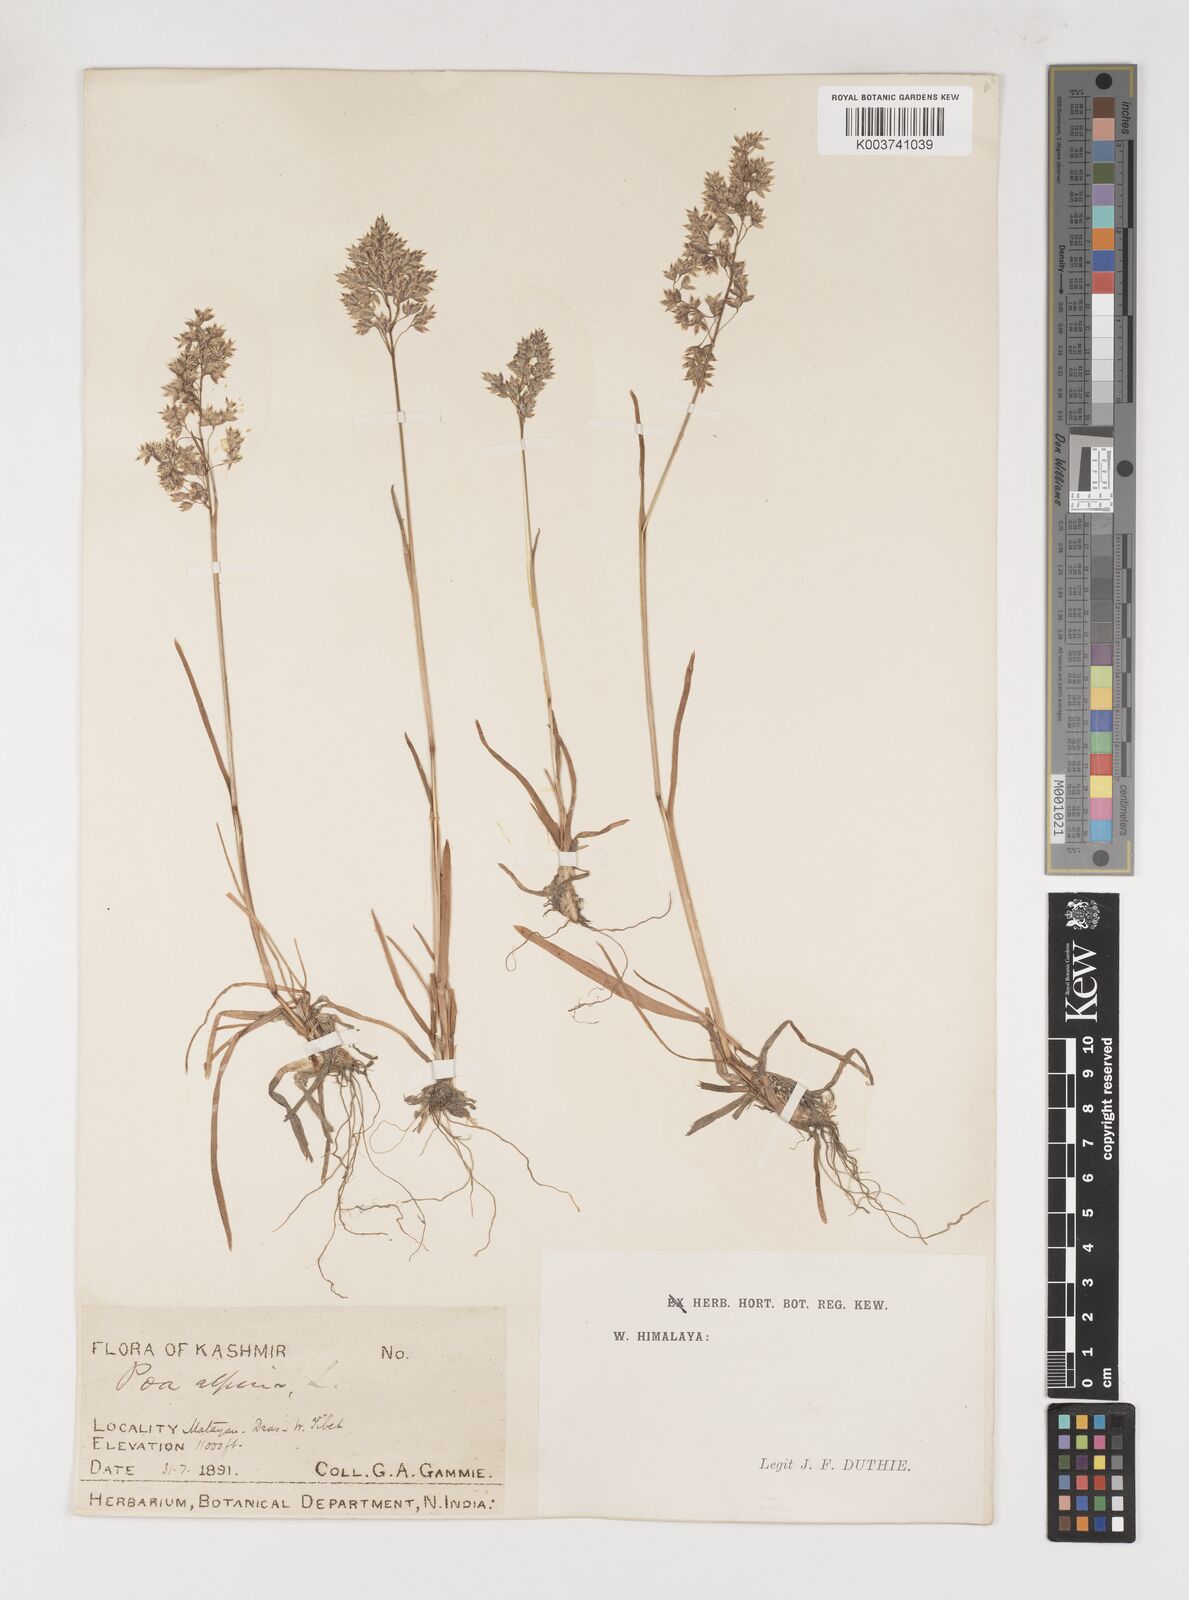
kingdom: Plantae
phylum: Tracheophyta
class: Liliopsida
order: Poales
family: Poaceae
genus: Poa
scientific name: Poa alpina
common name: Alpine bluegrass
